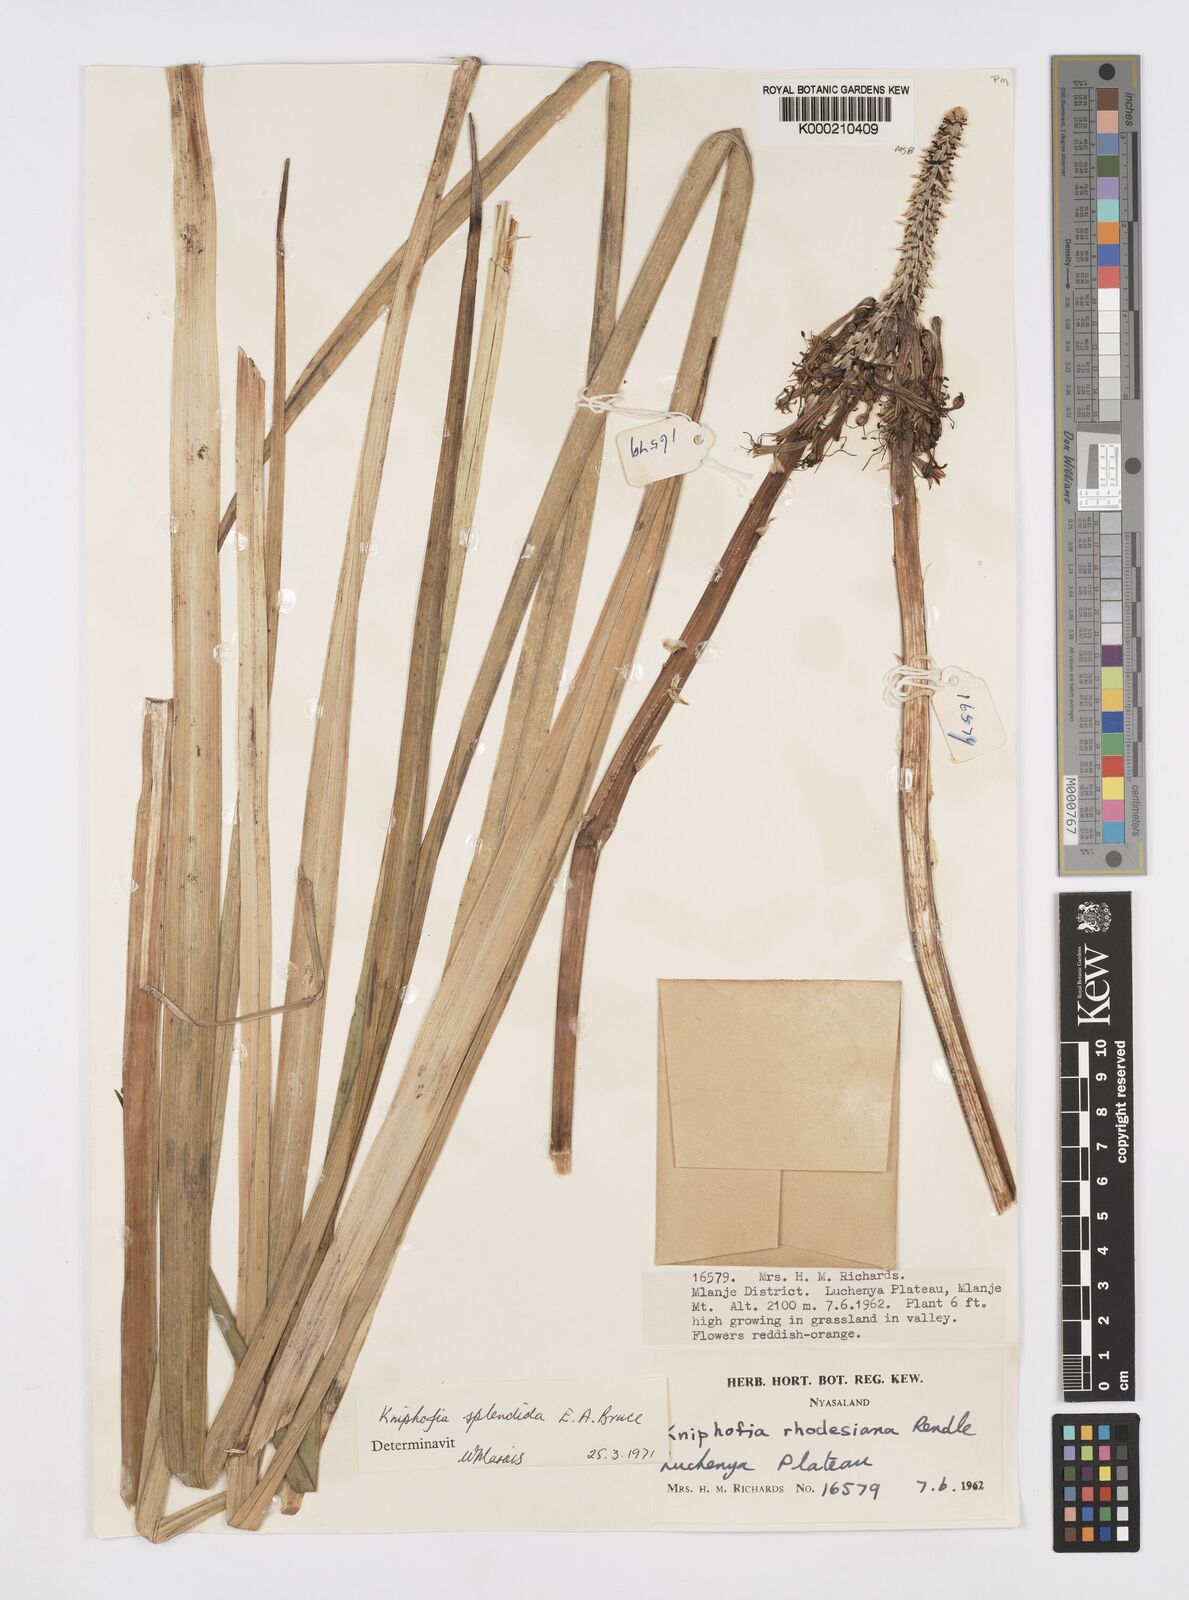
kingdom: Plantae
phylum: Tracheophyta
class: Liliopsida
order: Asparagales
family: Asphodelaceae
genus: Kniphofia
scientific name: Kniphofia splendida
